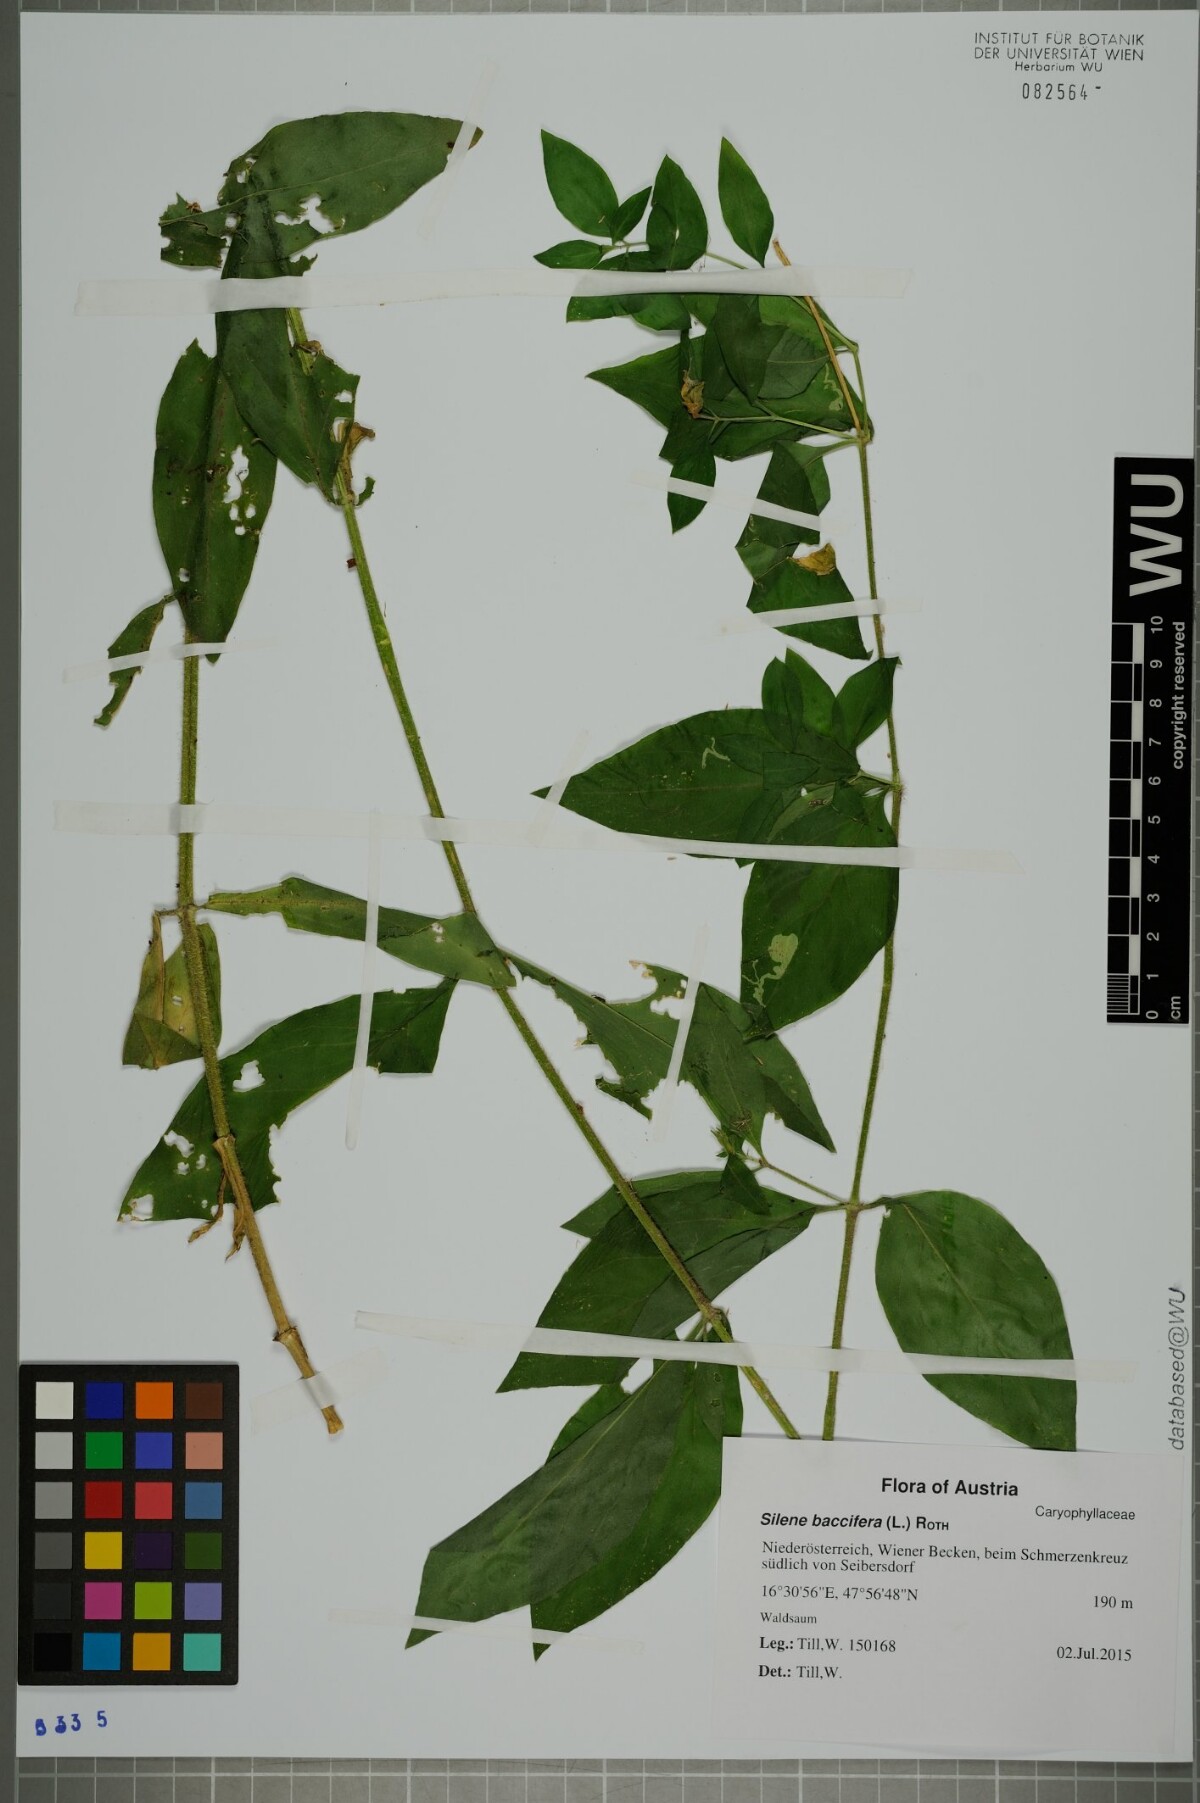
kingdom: Plantae
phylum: Tracheophyta
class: Magnoliopsida
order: Caryophyllales
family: Caryophyllaceae
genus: Silene
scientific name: Silene baccifera
